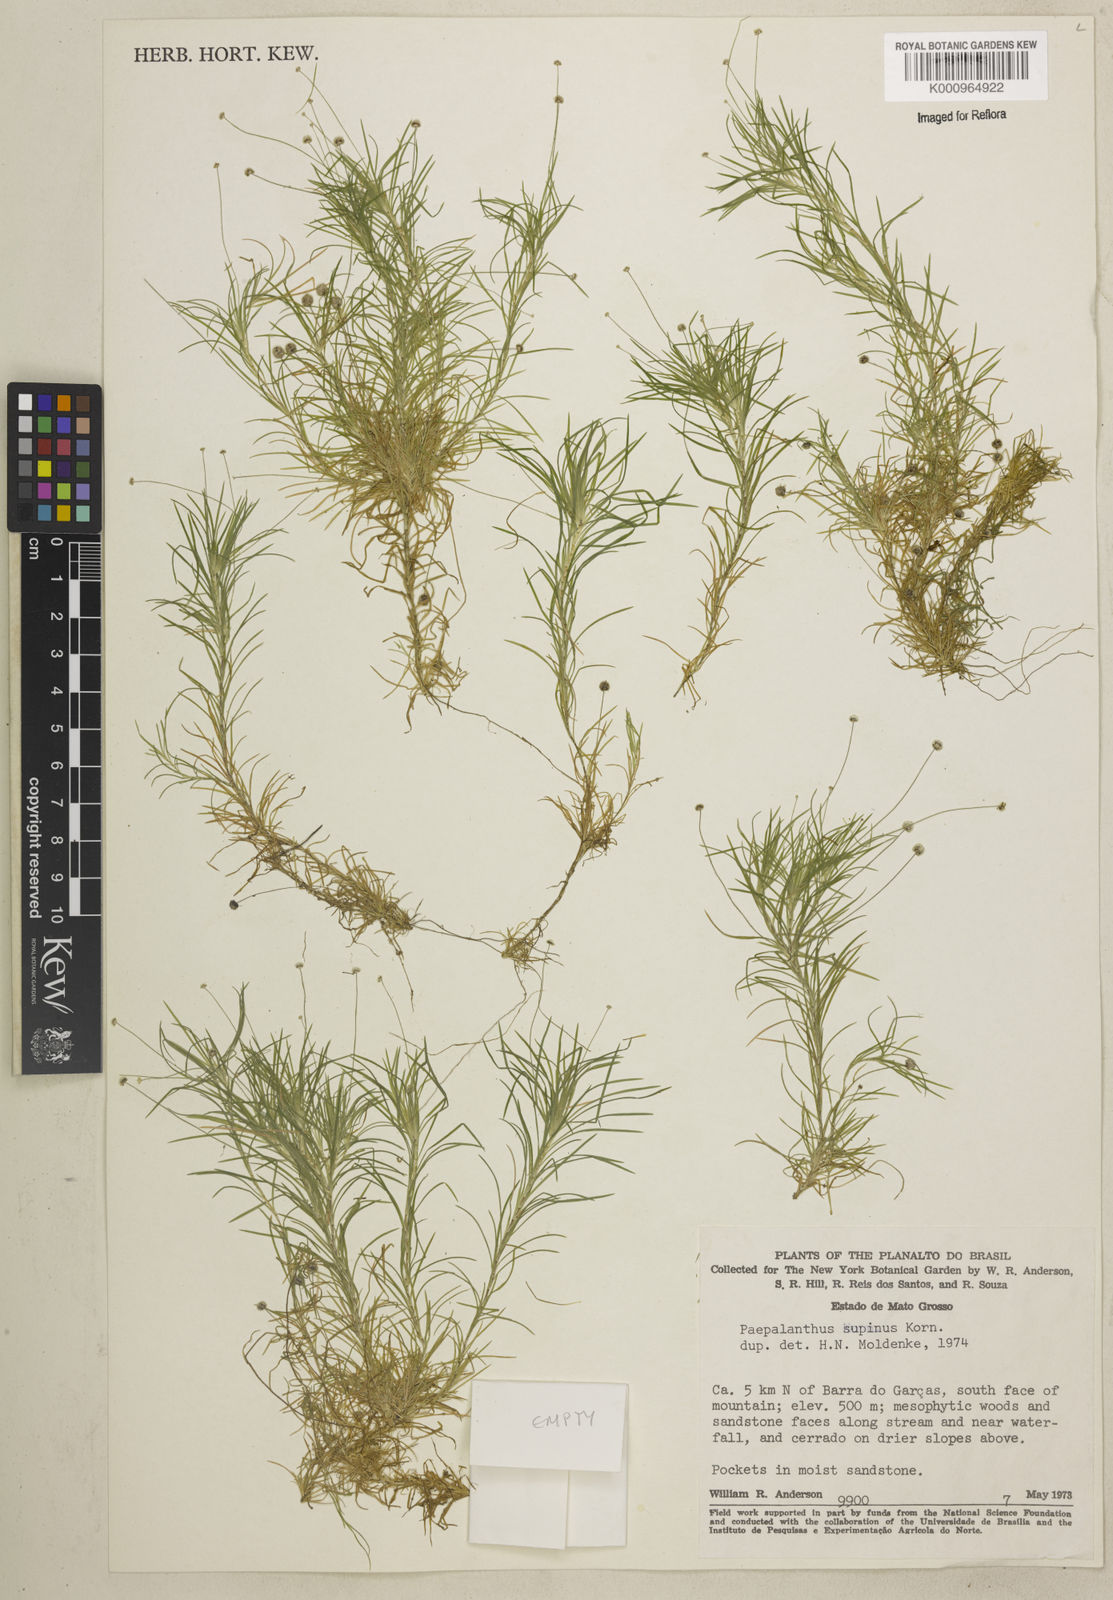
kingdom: Plantae
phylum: Tracheophyta
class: Liliopsida
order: Poales
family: Eriocaulaceae
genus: Paepalanthus
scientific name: Paepalanthus
